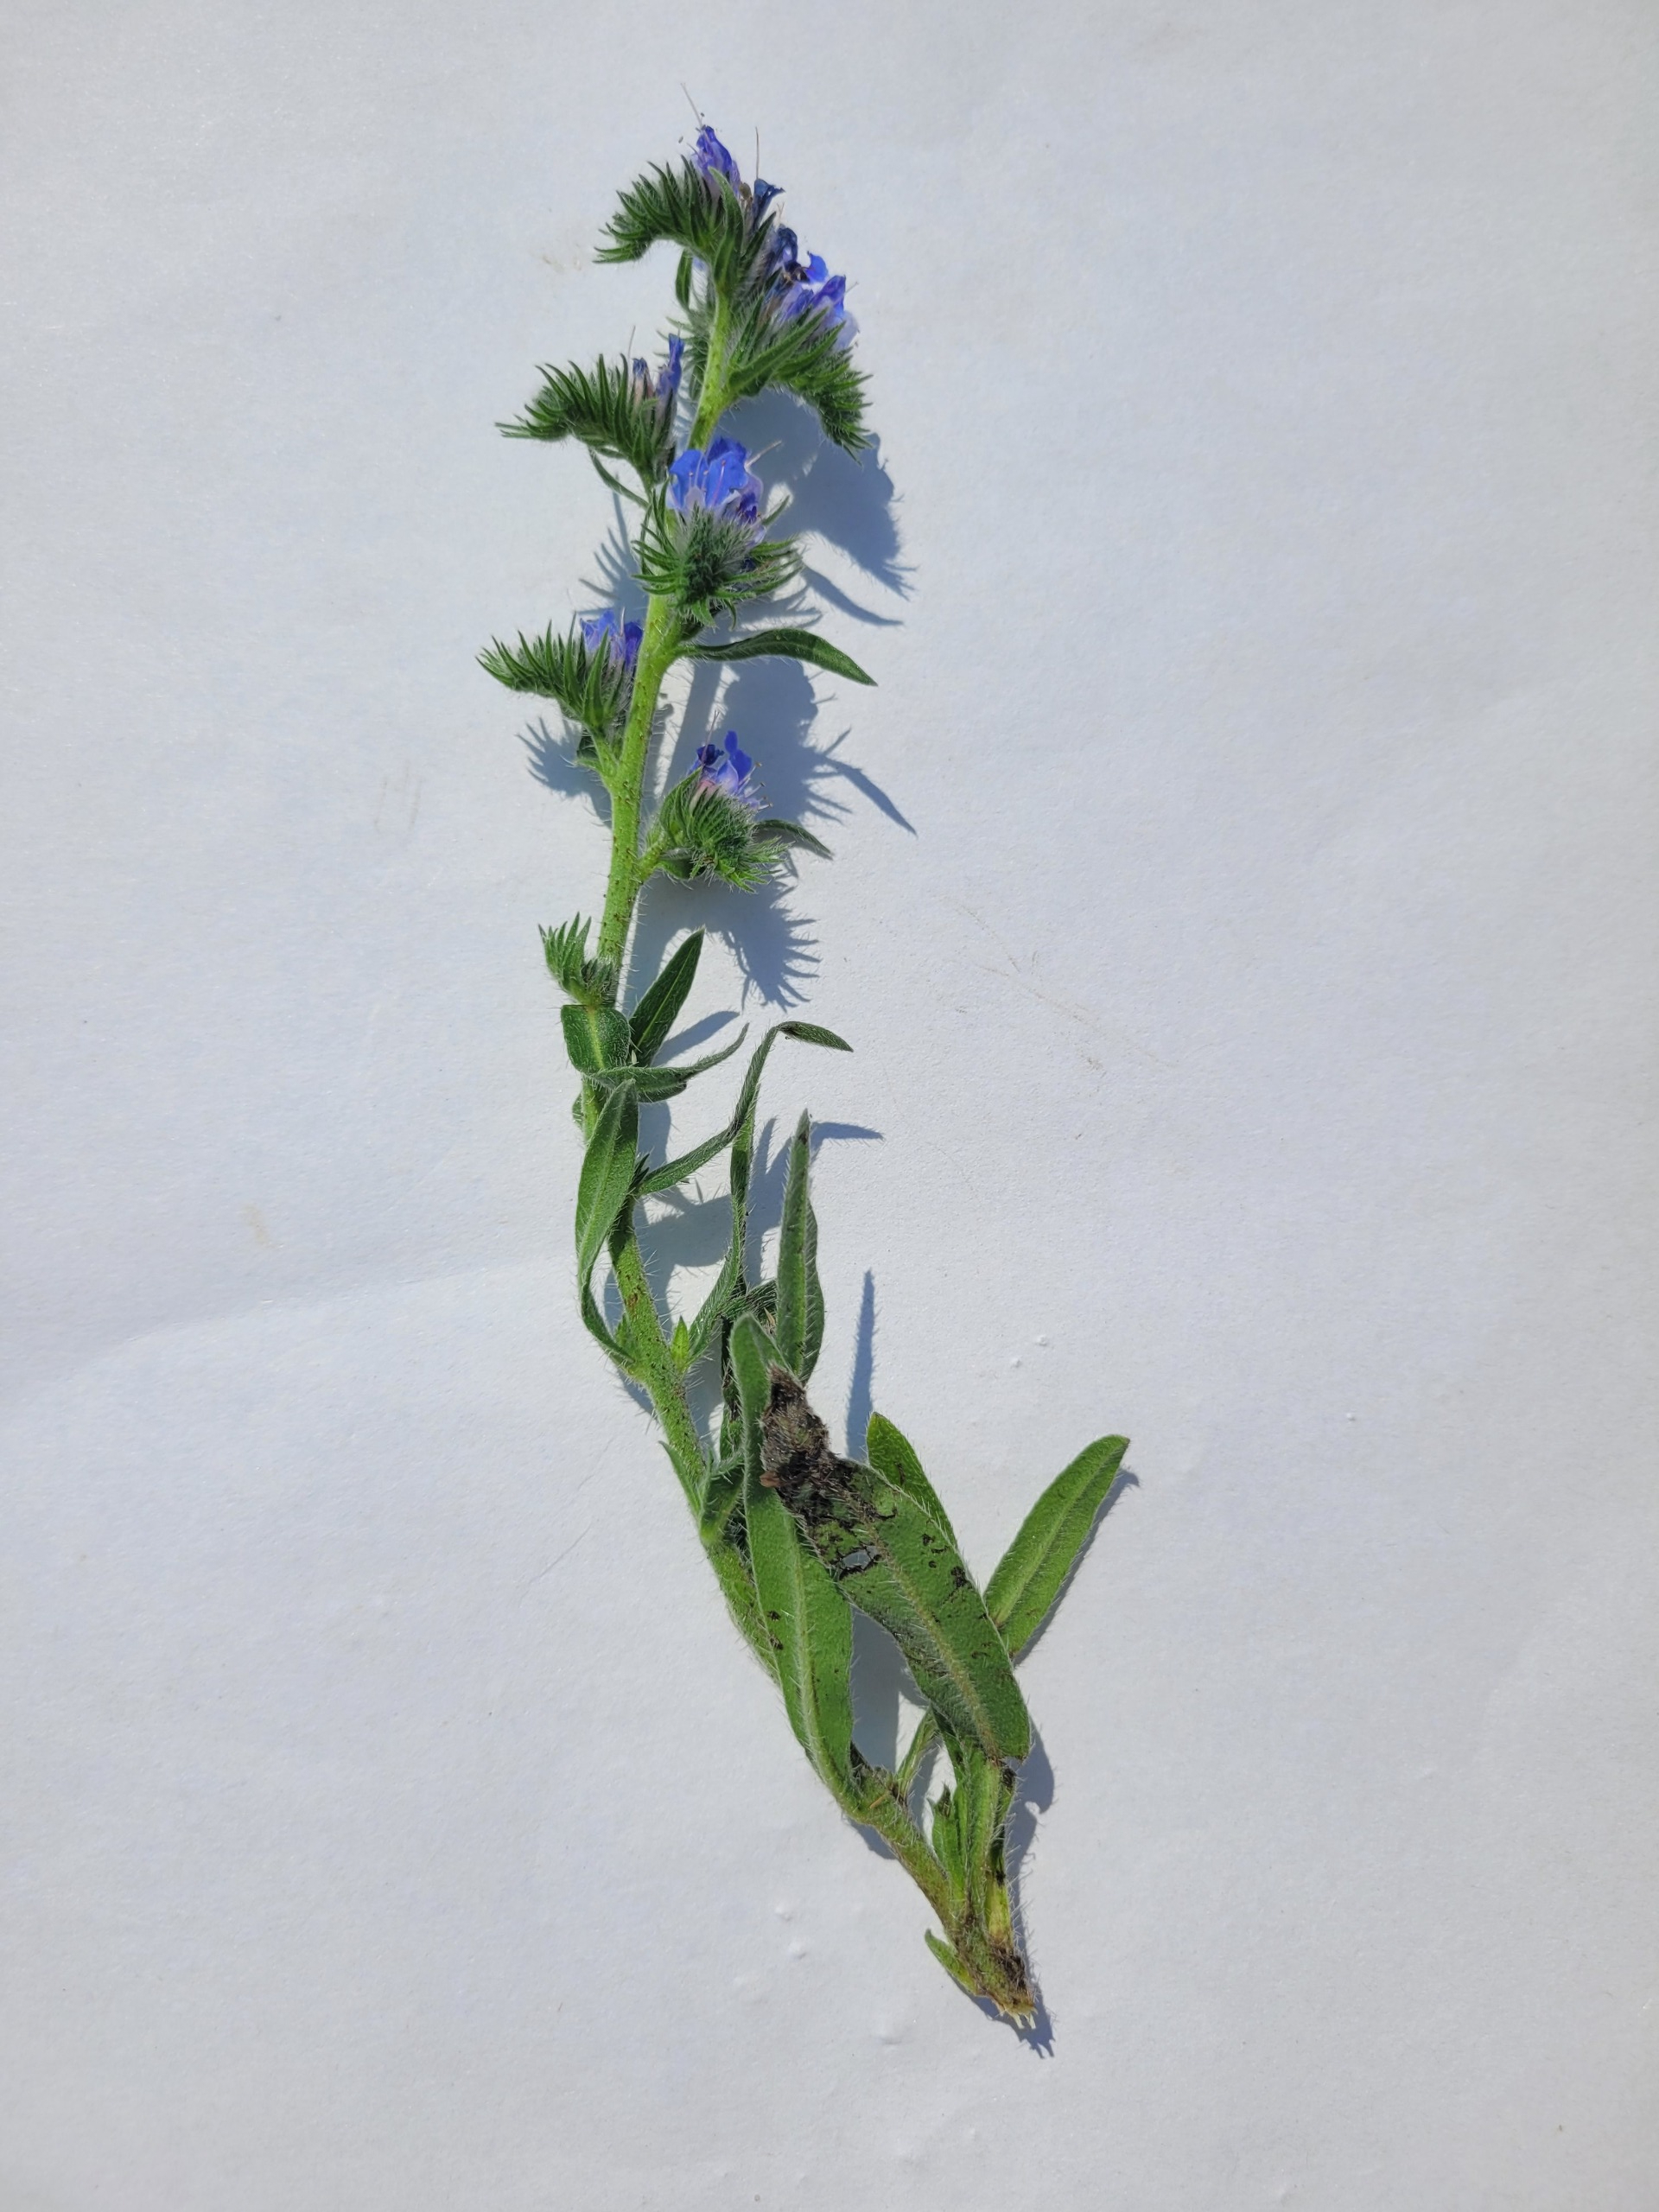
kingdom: Plantae
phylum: Tracheophyta
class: Magnoliopsida
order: Boraginales
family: Boraginaceae
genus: Echium
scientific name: Echium vulgare
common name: Slangehoved
